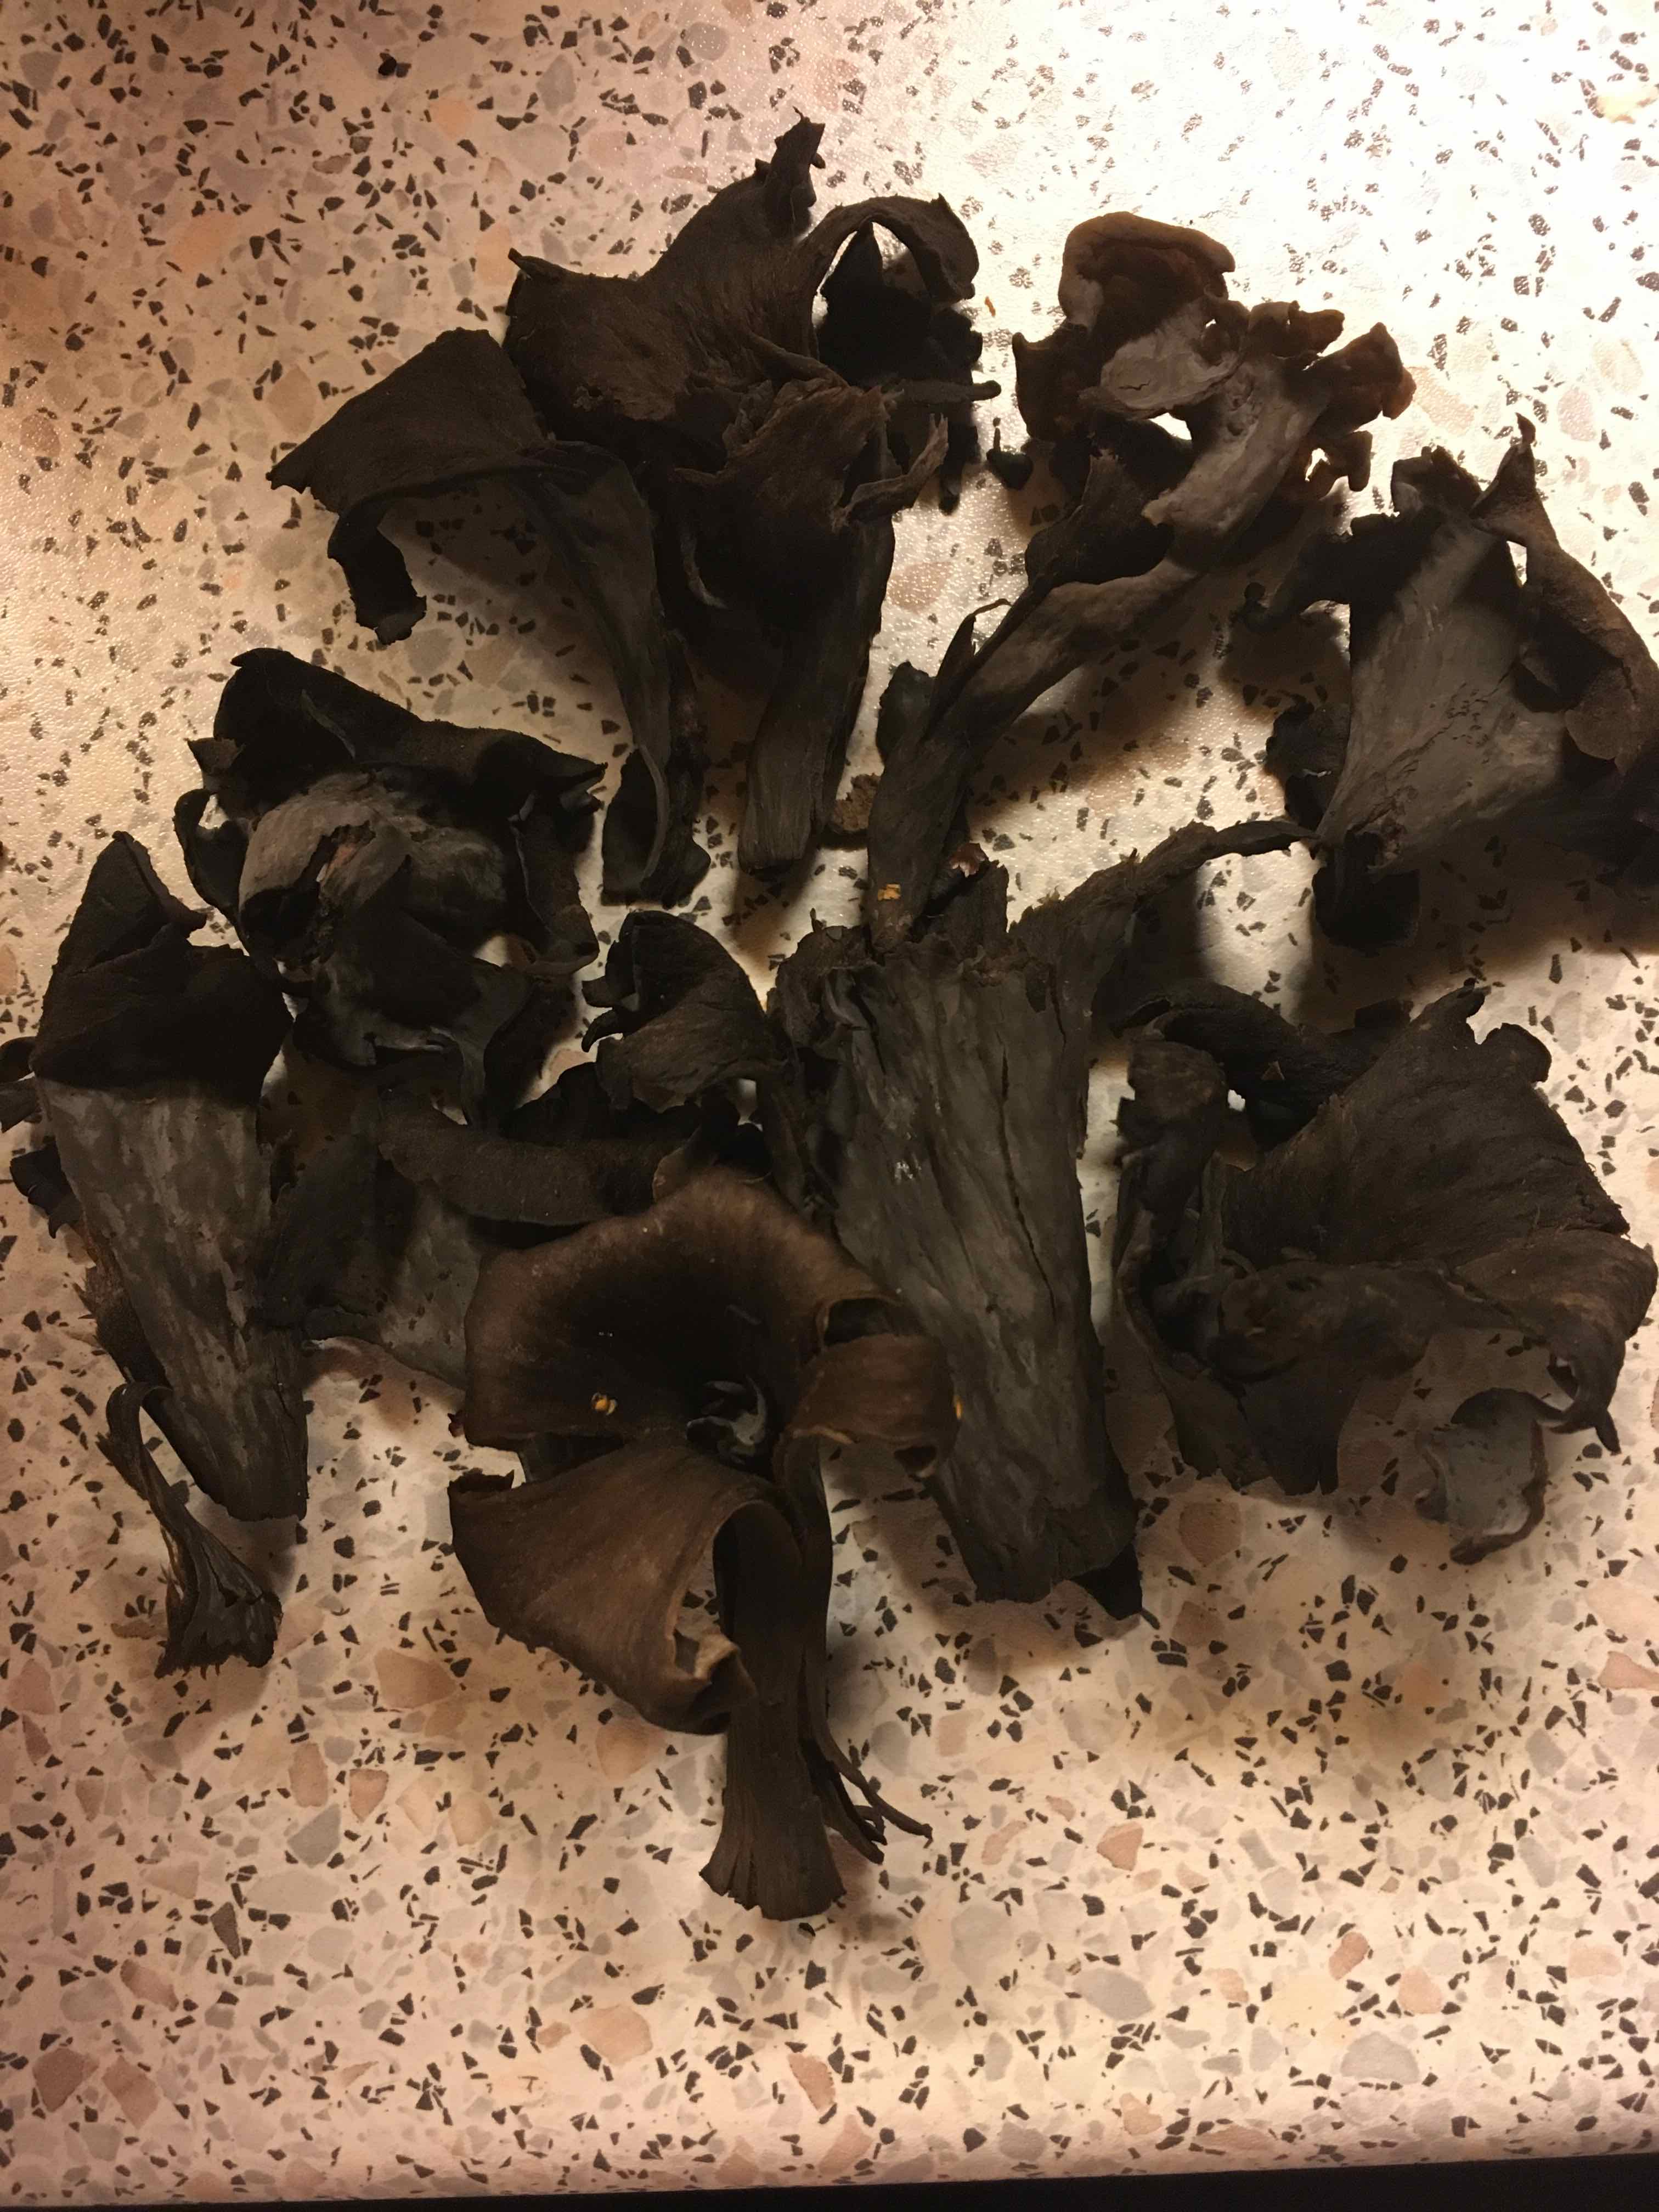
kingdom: Fungi
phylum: Basidiomycota
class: Agaricomycetes
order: Cantharellales
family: Hydnaceae
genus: Craterellus
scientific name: Craterellus cornucopioides
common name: trompetsvamp
